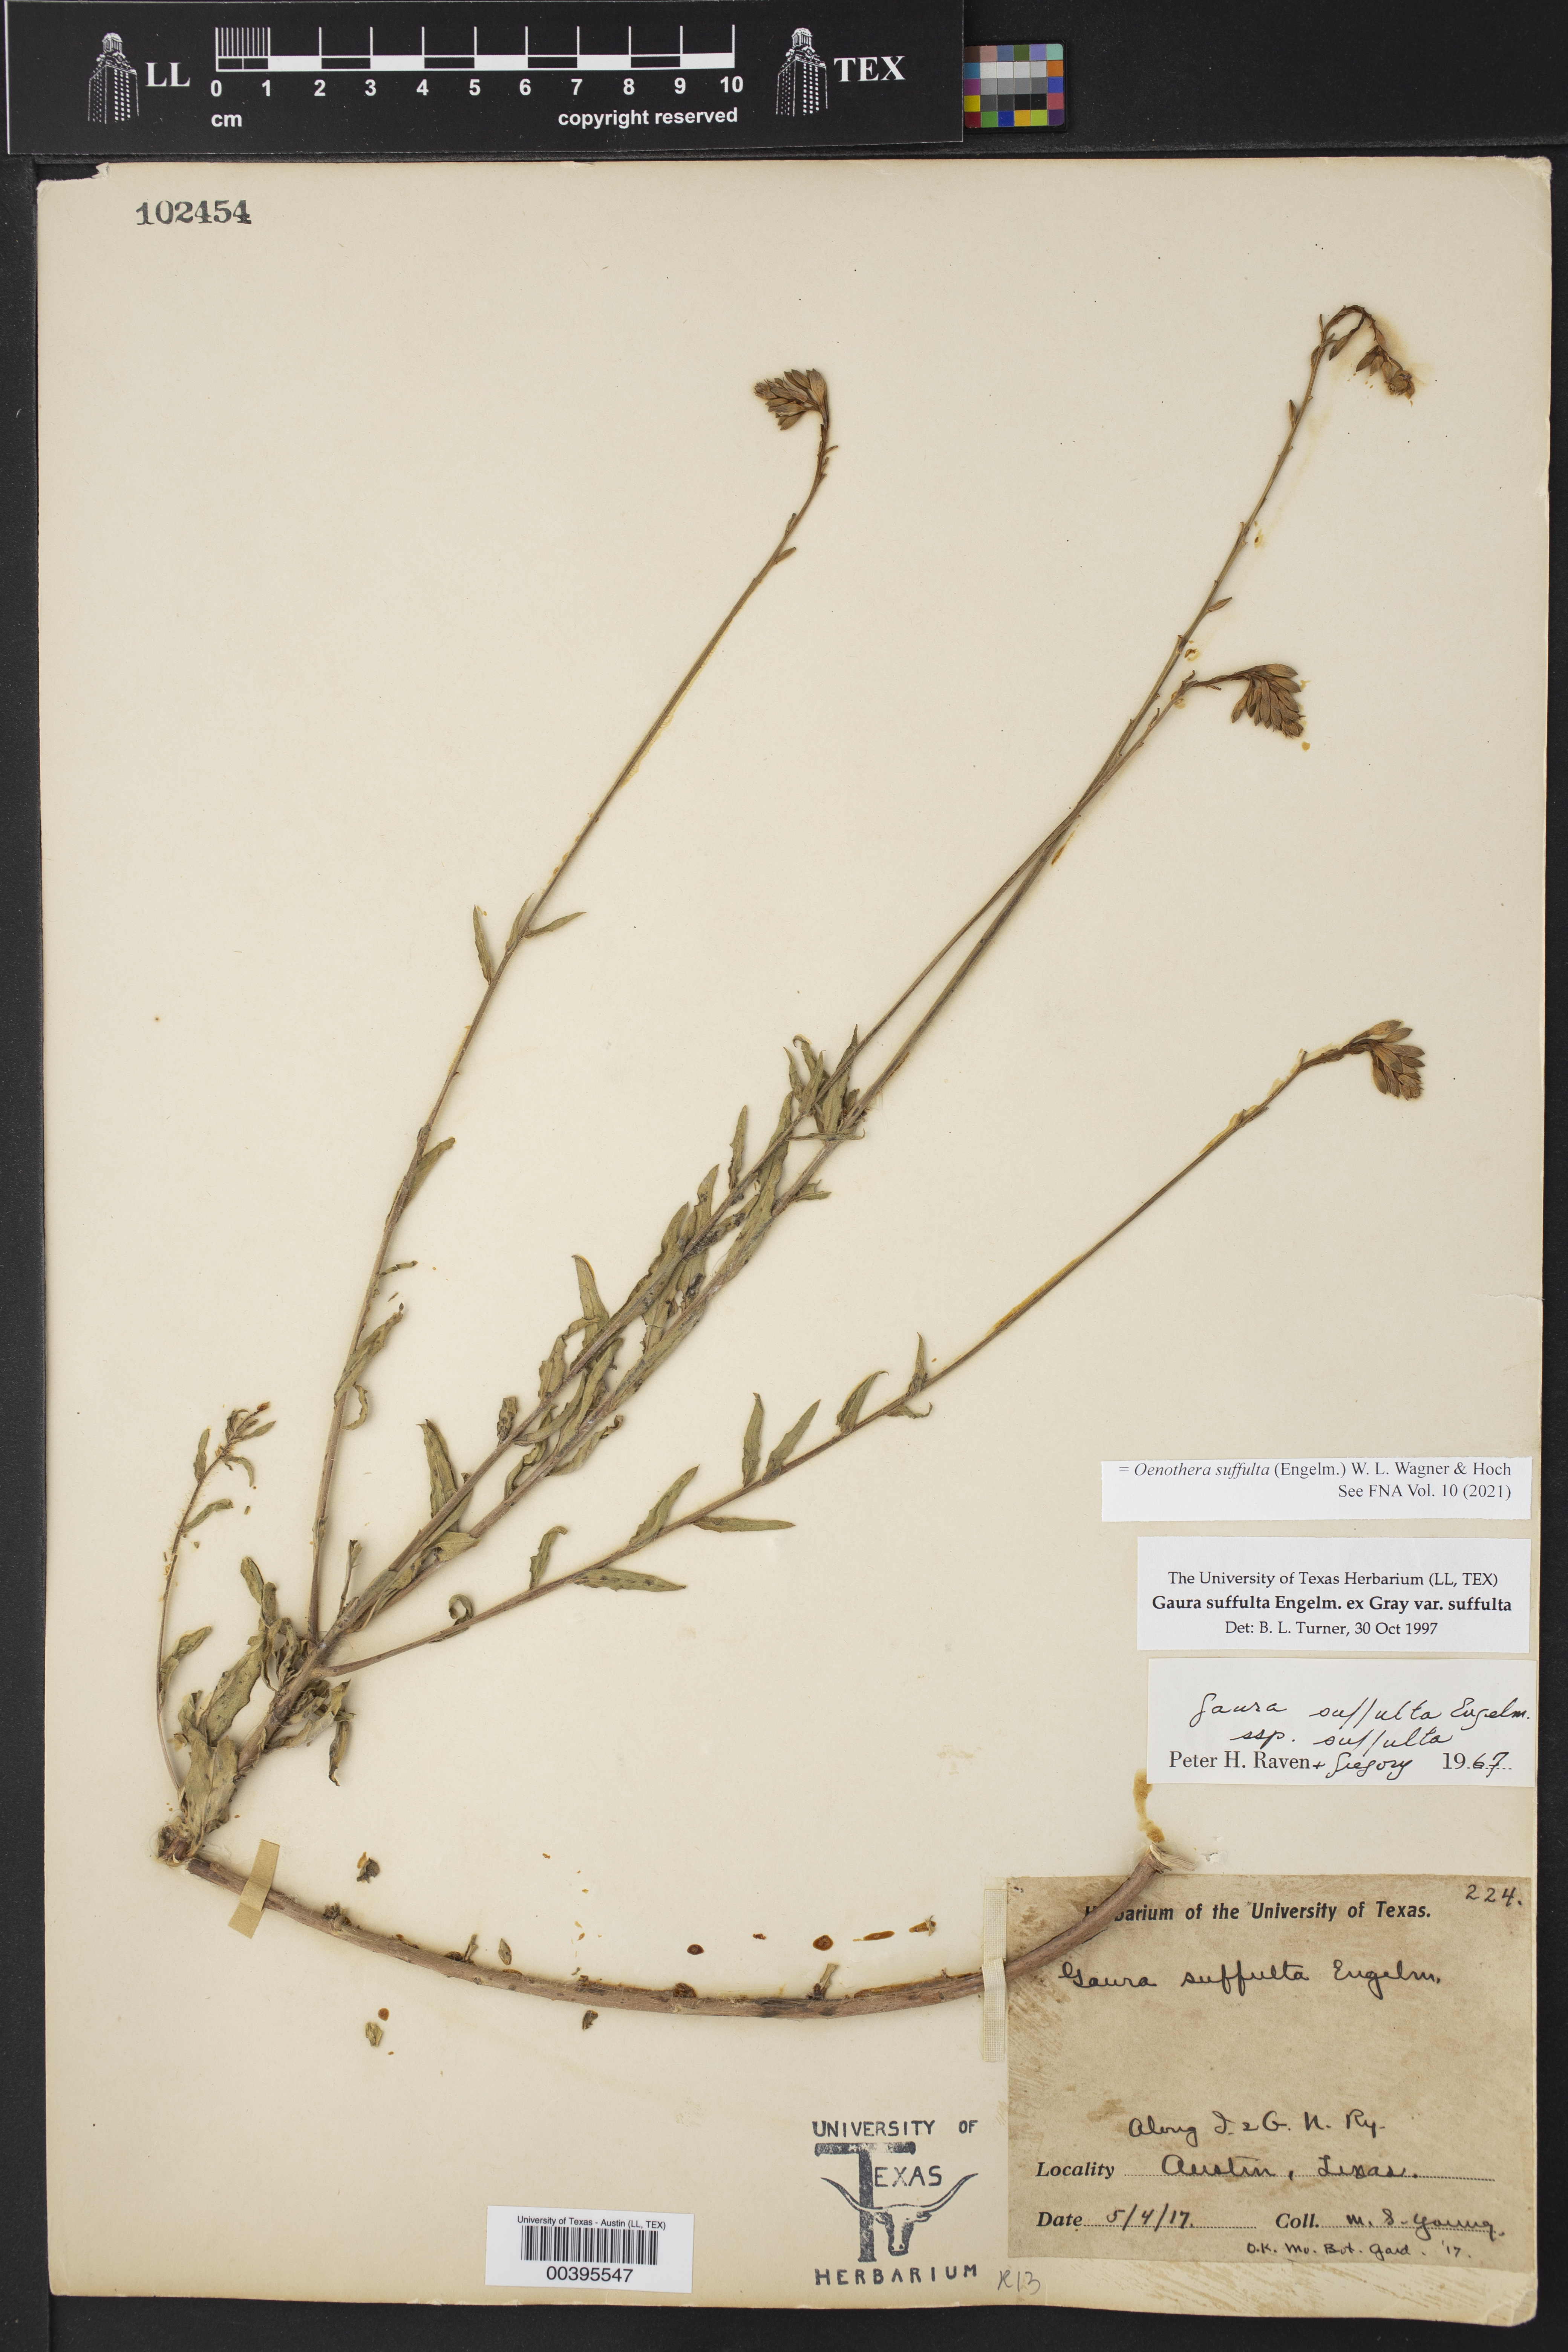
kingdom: Plantae
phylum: Tracheophyta
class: Magnoliopsida
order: Myrtales
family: Onagraceae
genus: Oenothera
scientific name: Oenothera suffulta
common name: Kisses
